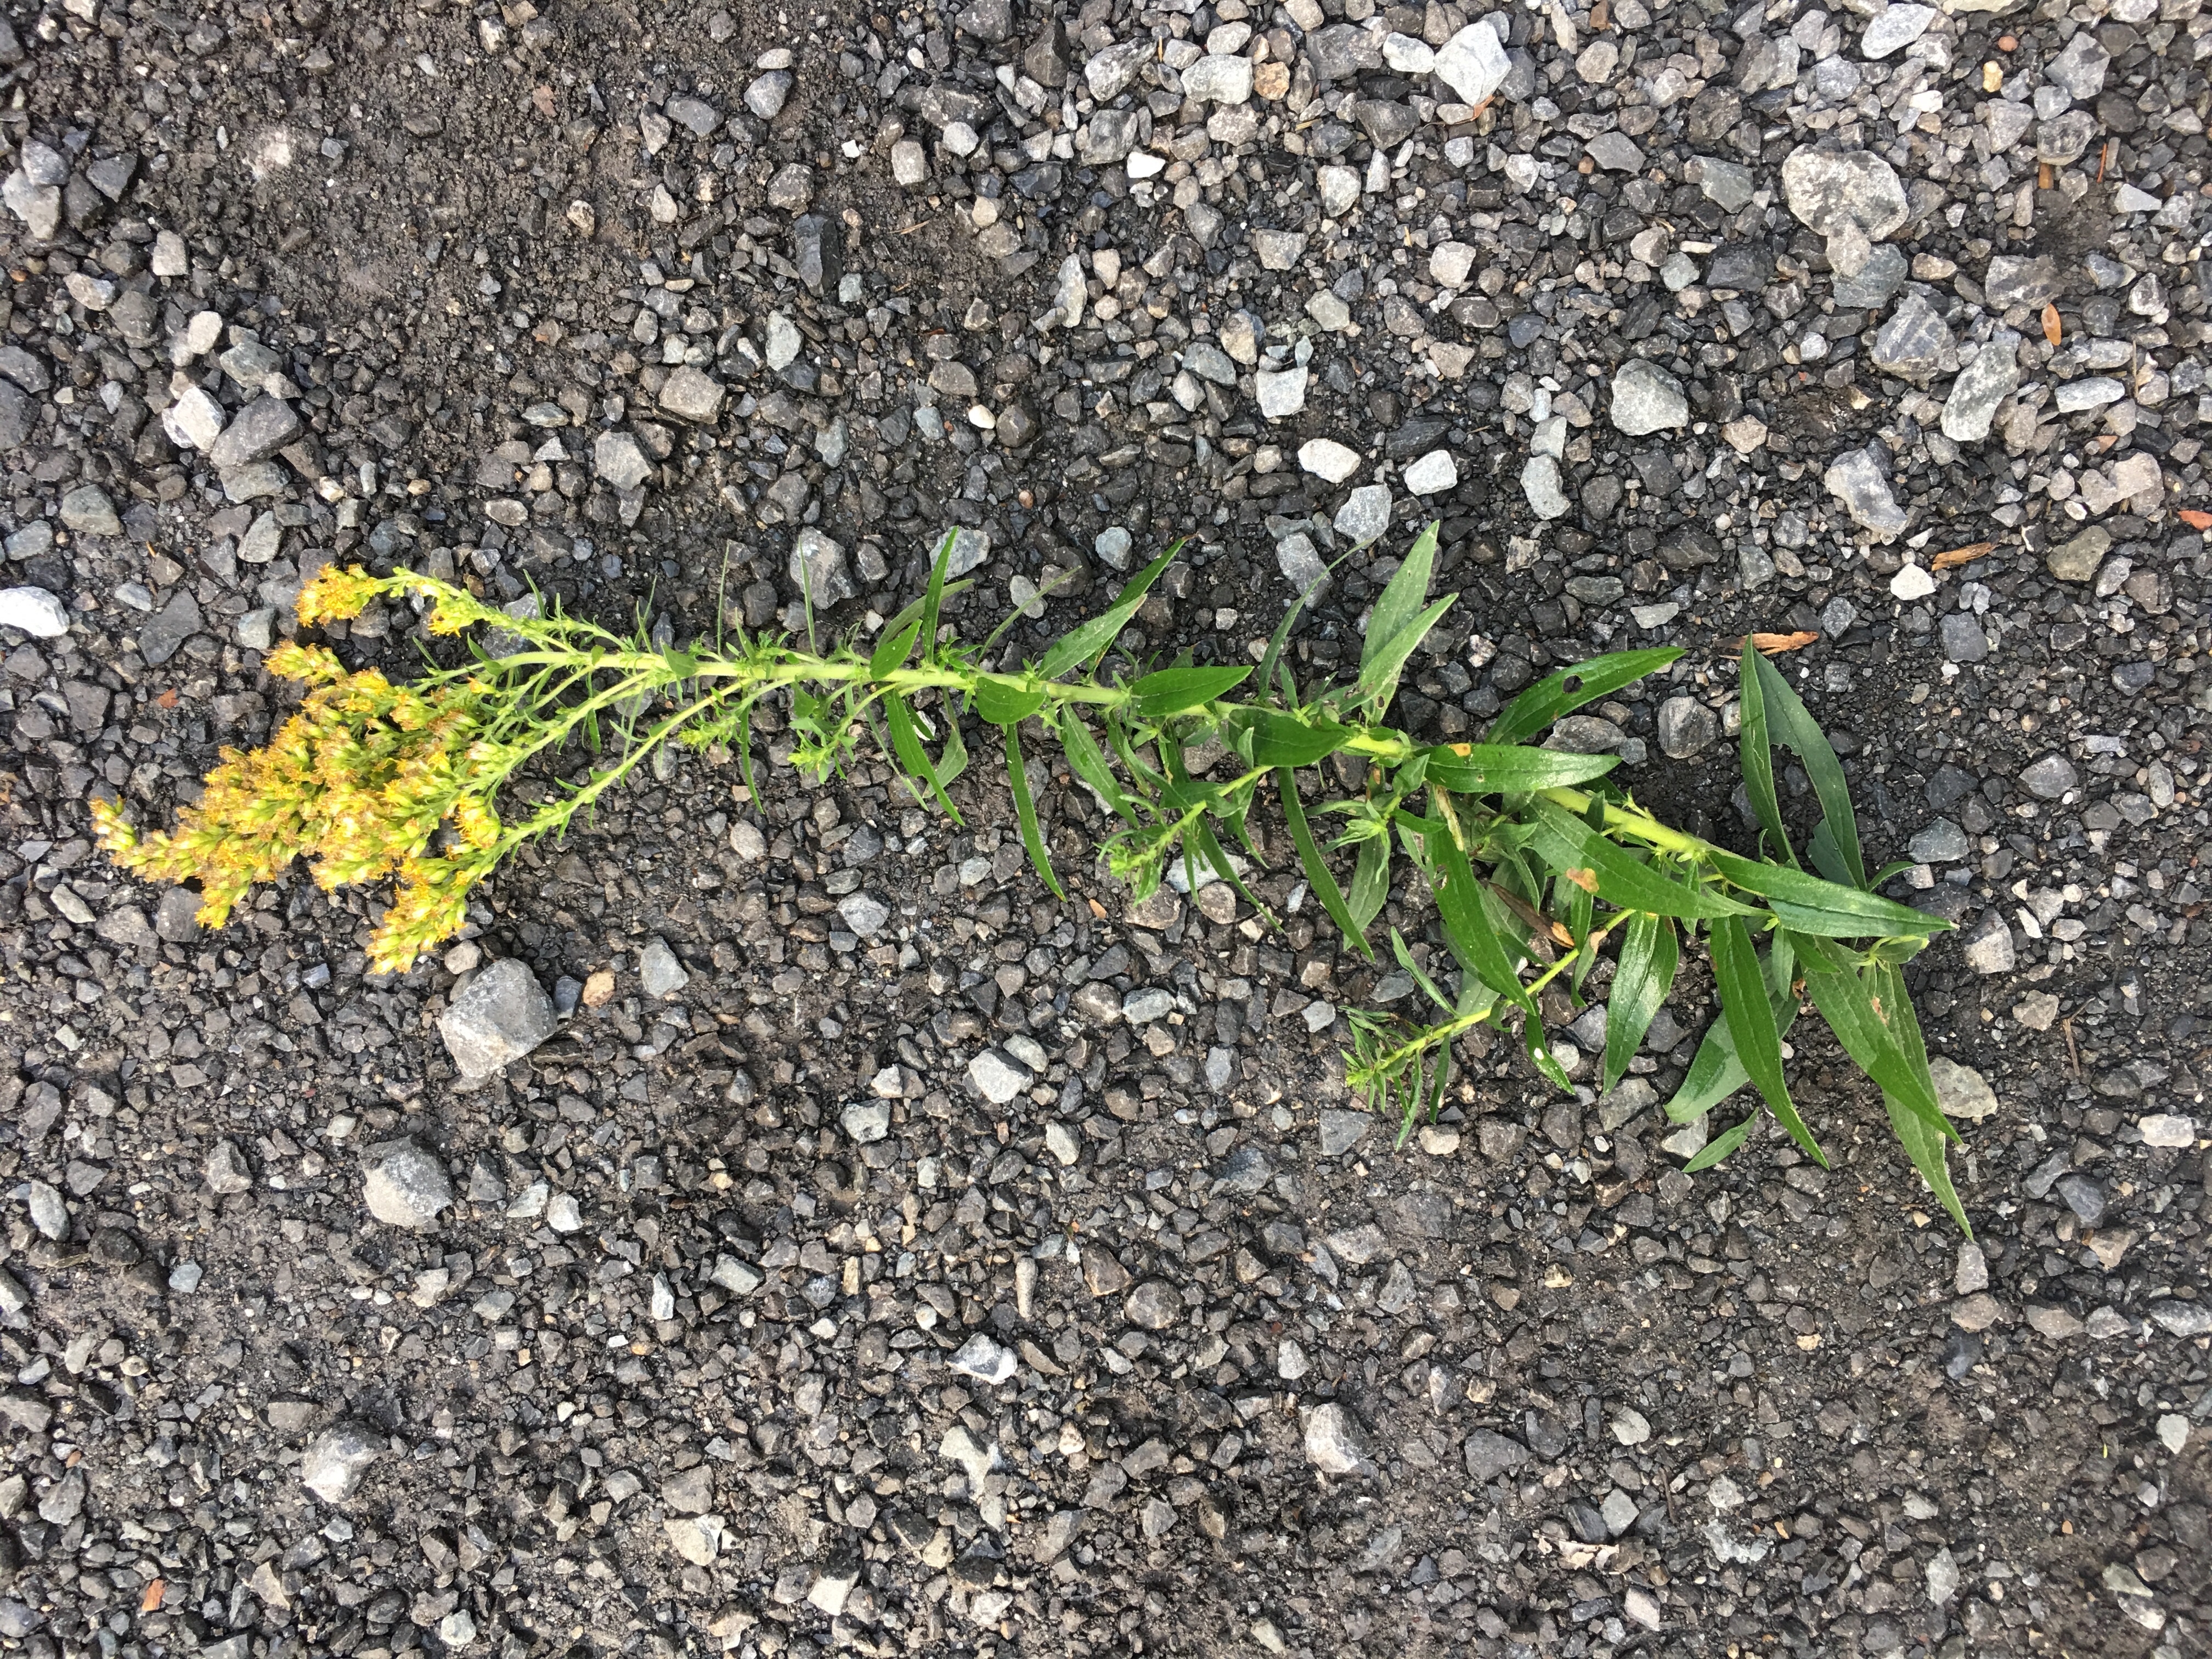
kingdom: Plantae
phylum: Tracheophyta
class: Magnoliopsida
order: Asterales
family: Asteraceae
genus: Solidago
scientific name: Solidago altissima
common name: Goldenrod
